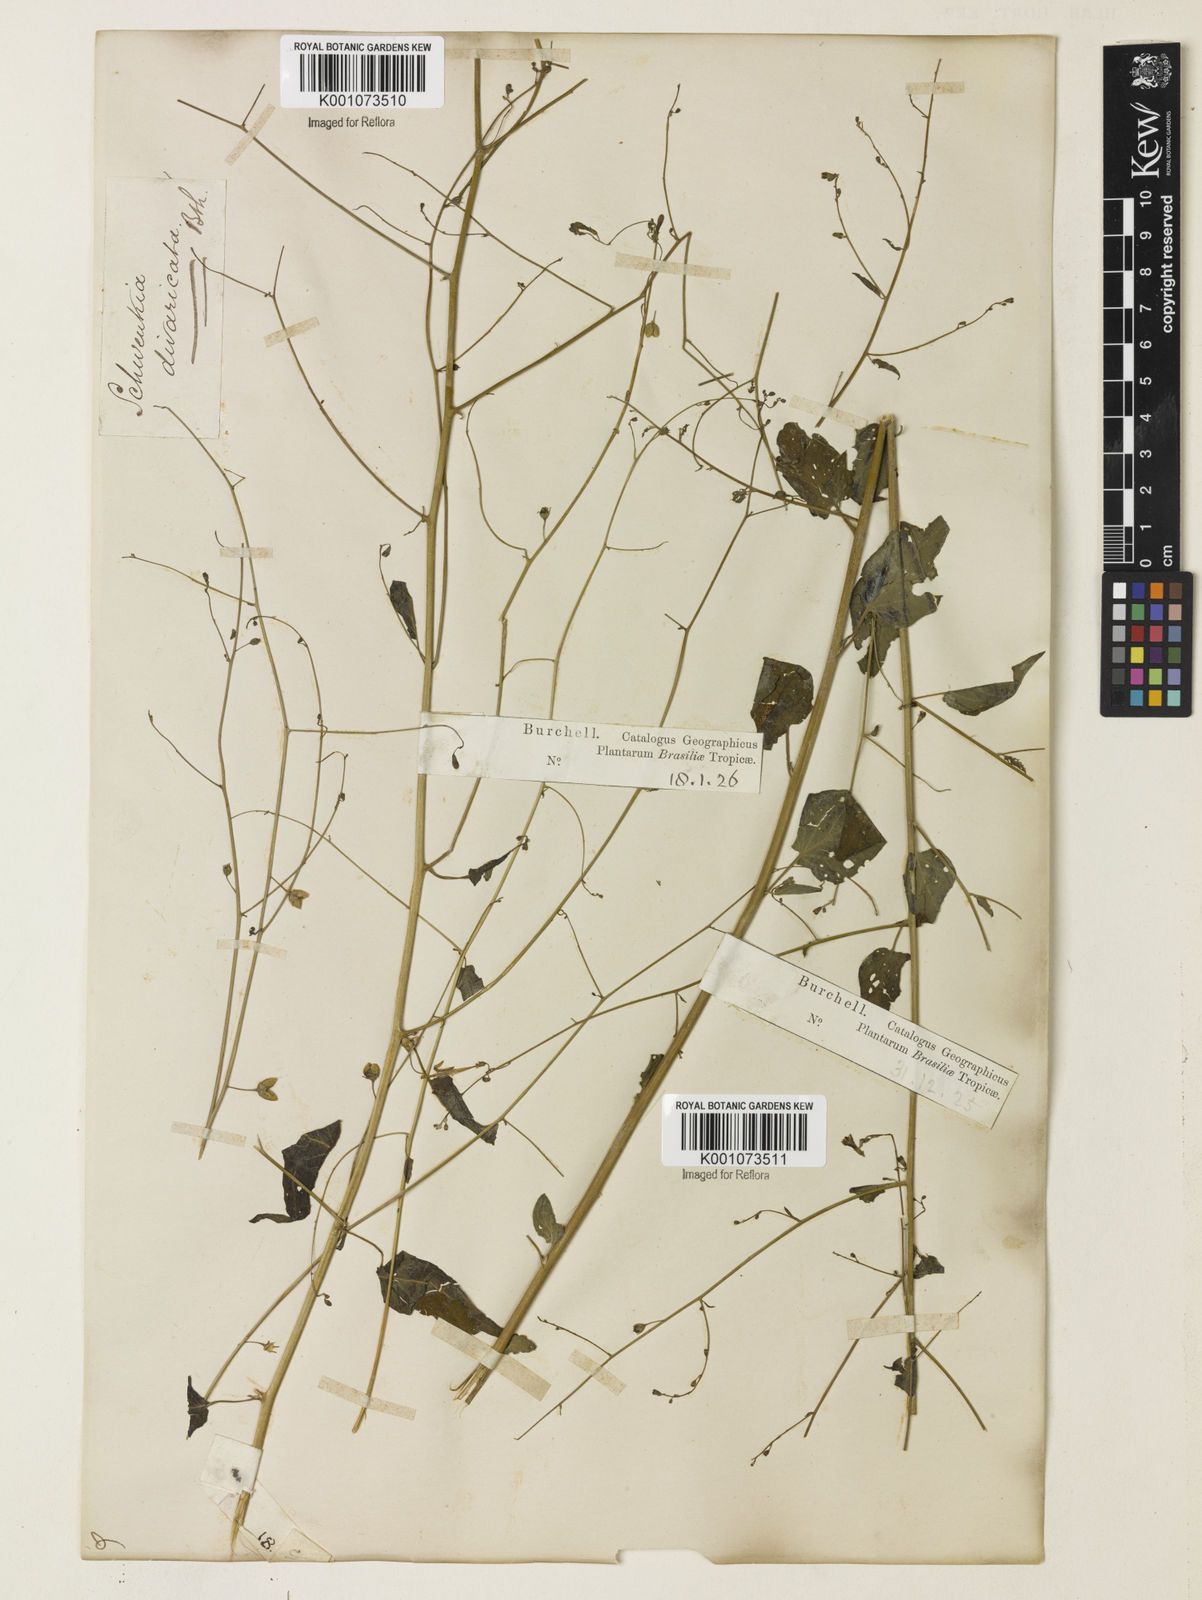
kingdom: Plantae
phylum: Tracheophyta
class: Magnoliopsida
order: Solanales
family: Solanaceae
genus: Schwenckia
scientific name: Schwenckia paniculata
